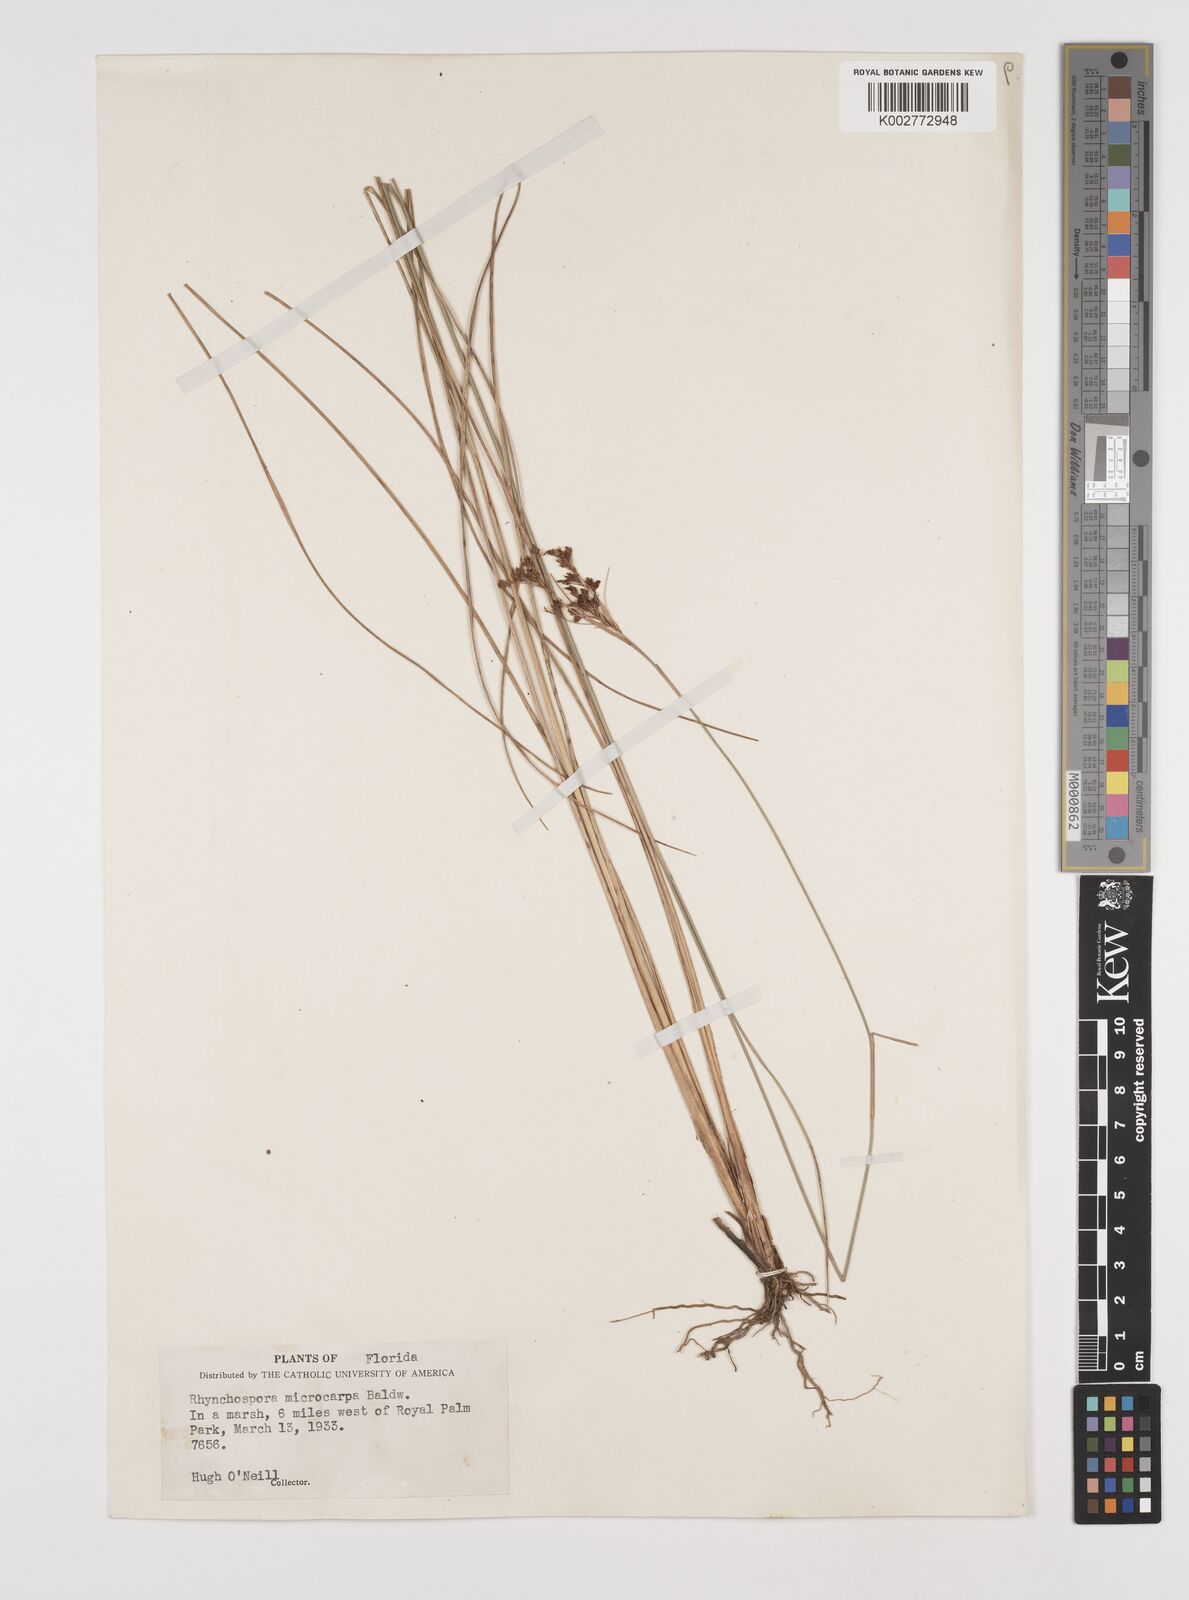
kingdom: Plantae
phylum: Tracheophyta
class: Liliopsida
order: Poales
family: Cyperaceae
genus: Rhynchospora
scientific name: Rhynchospora microcarpa
